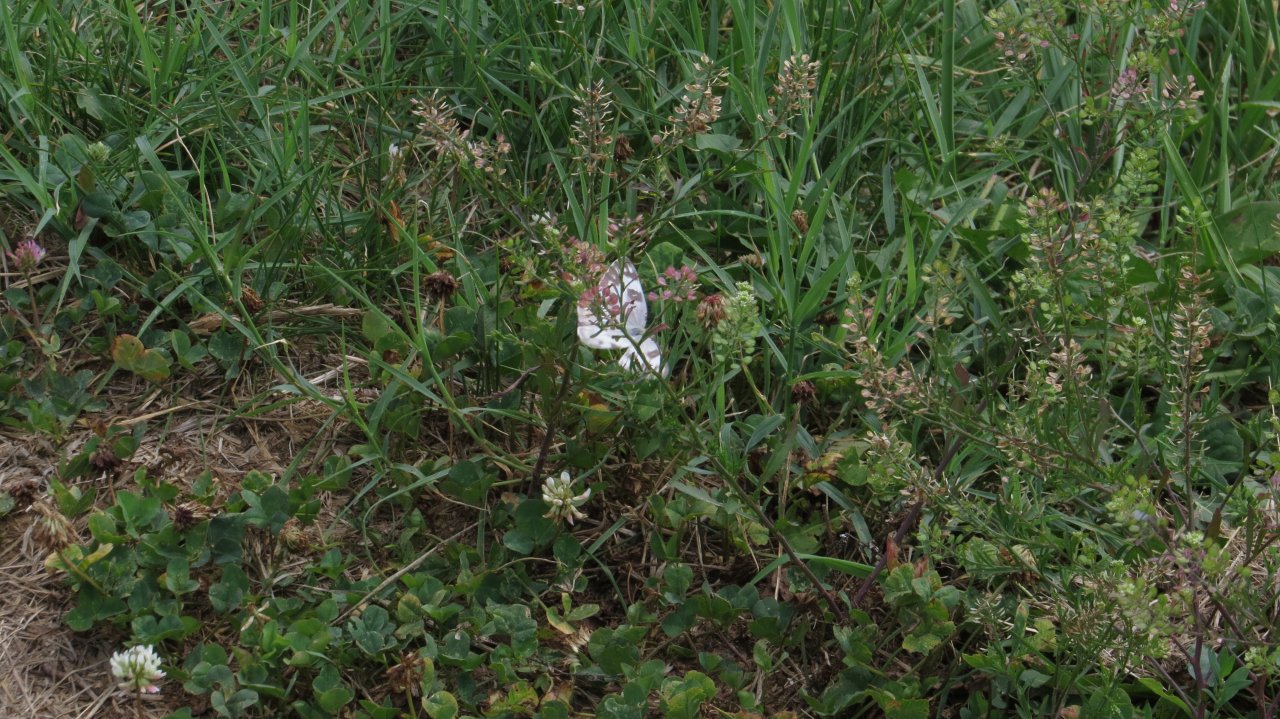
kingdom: Animalia
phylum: Arthropoda
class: Insecta
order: Lepidoptera
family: Pieridae
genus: Pontia
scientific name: Pontia protodice
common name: Checkered White
